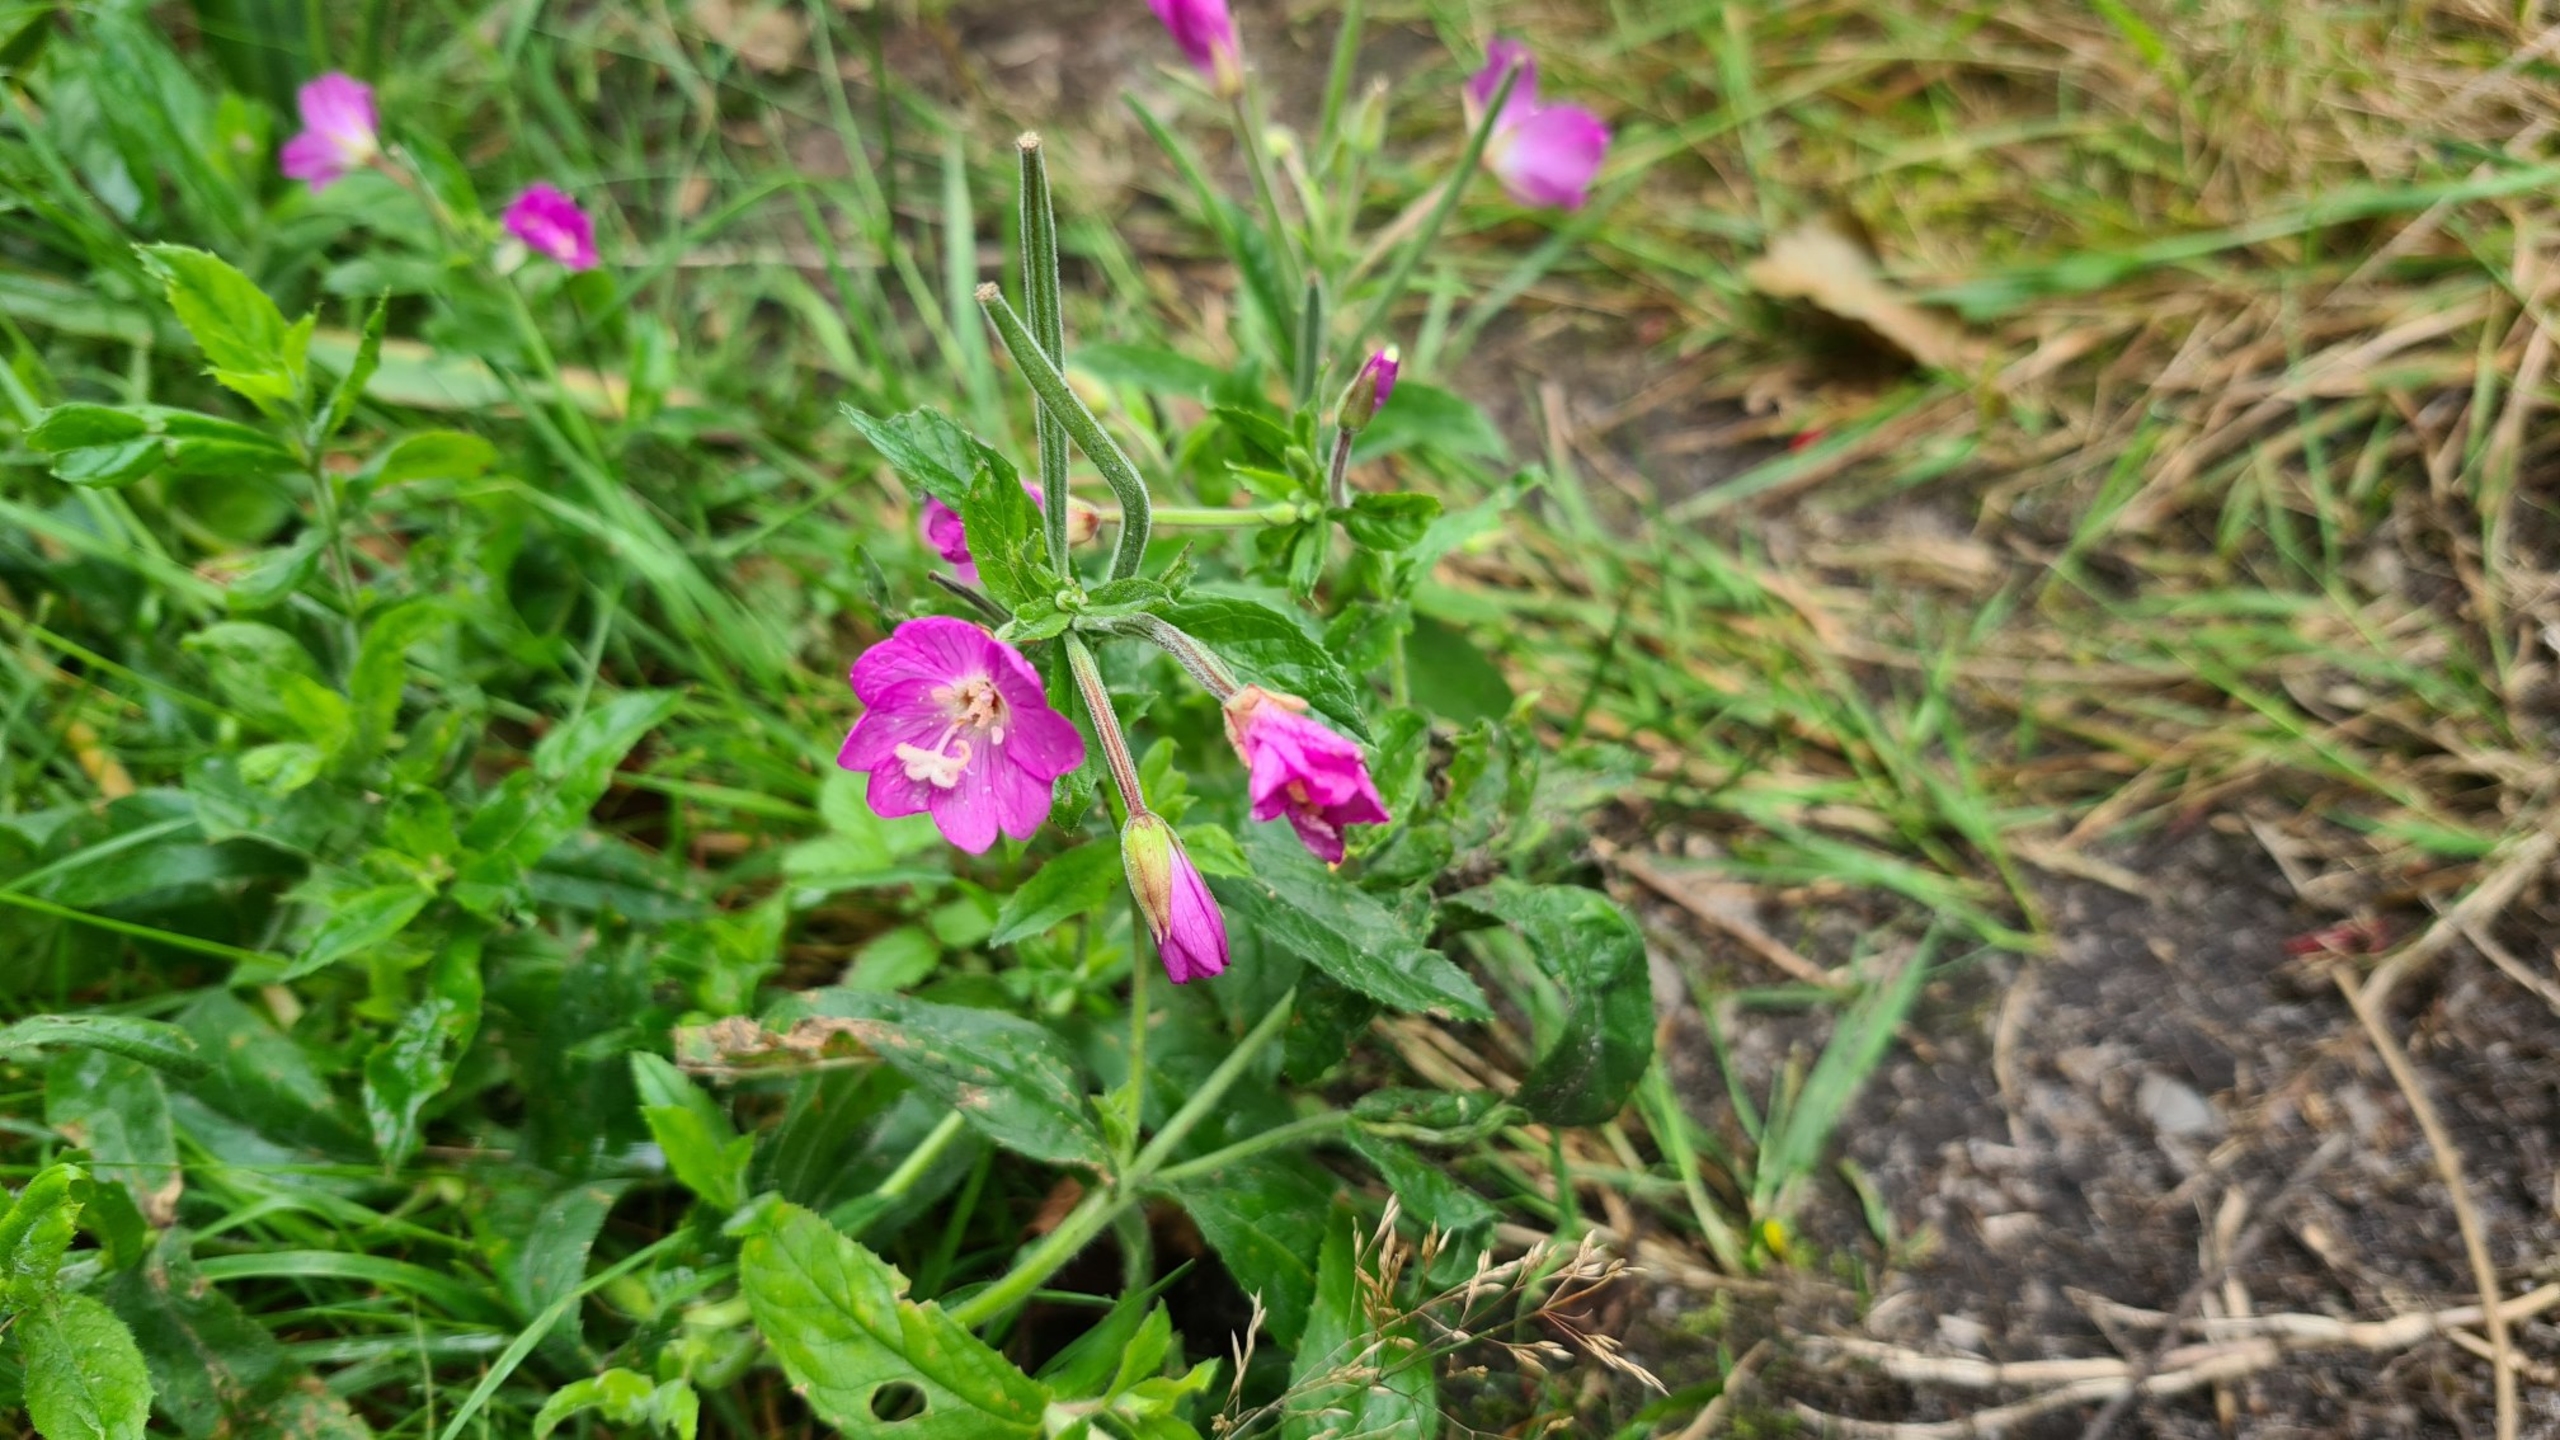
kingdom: Plantae
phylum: Tracheophyta
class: Magnoliopsida
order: Myrtales
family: Onagraceae
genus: Epilobium
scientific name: Epilobium hirsutum
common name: Lådden dueurt
